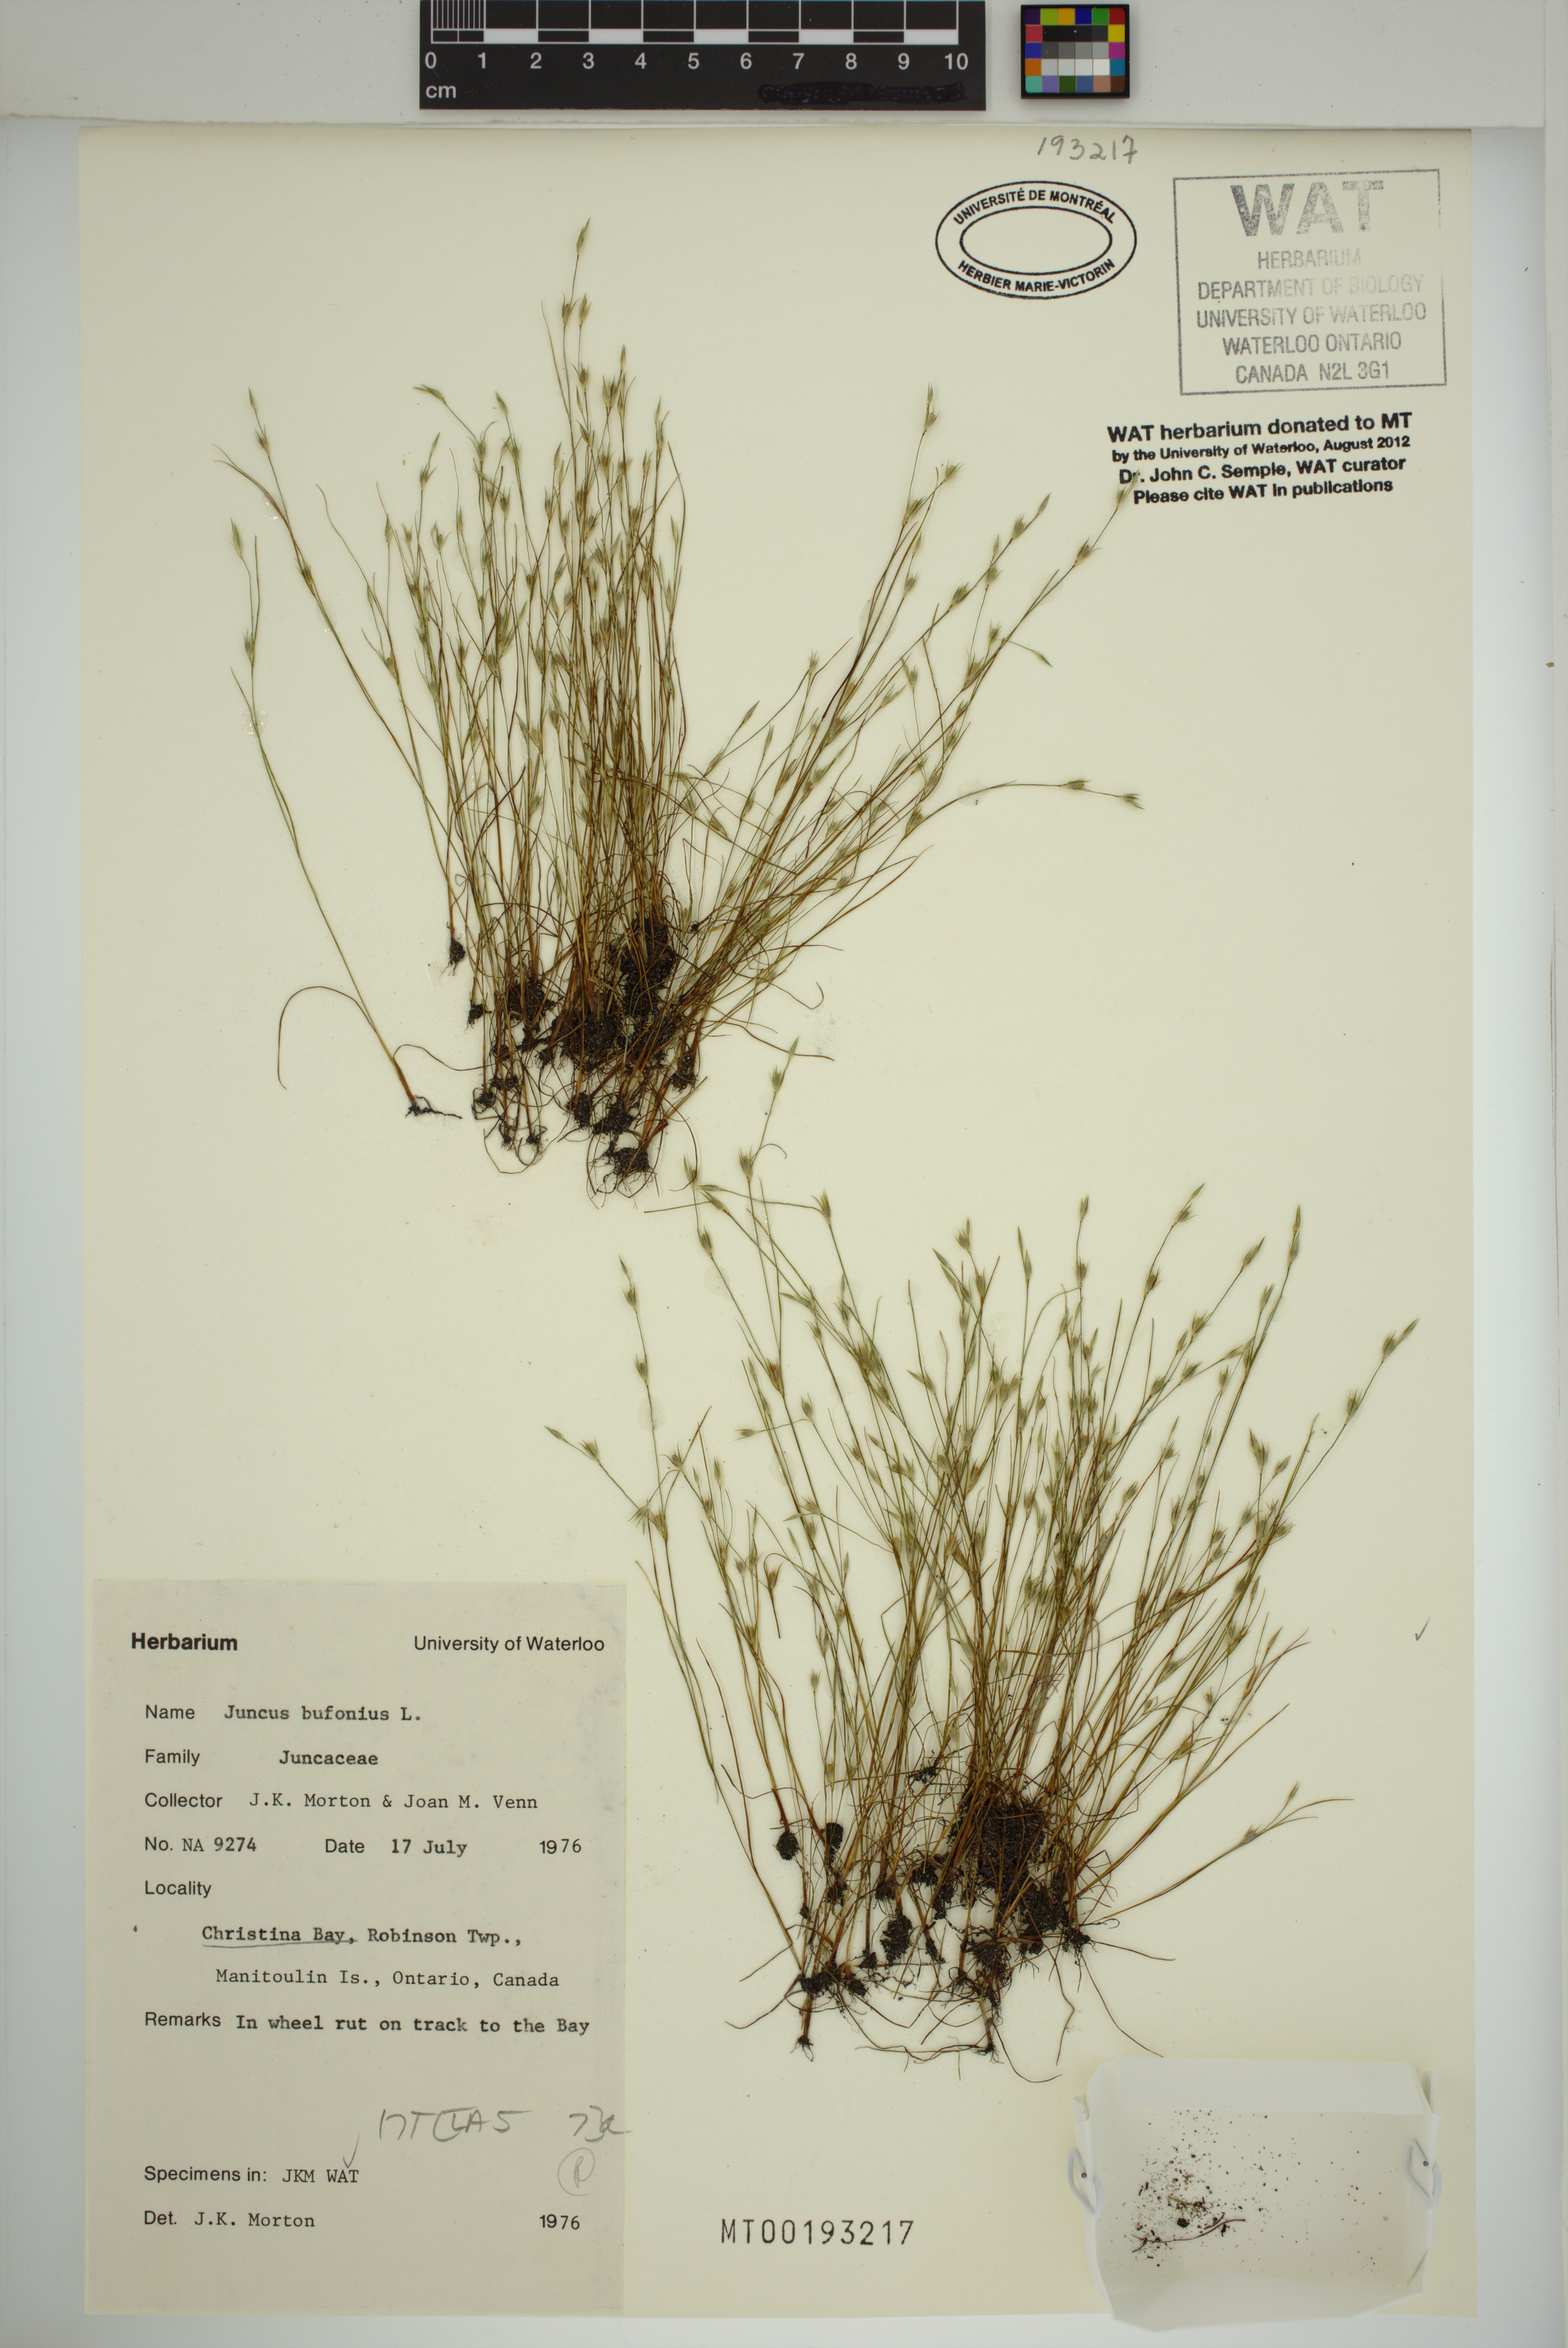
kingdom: Plantae
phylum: Tracheophyta
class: Liliopsida
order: Poales
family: Juncaceae
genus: Juncus
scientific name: Juncus bufonius
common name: Toad rush
